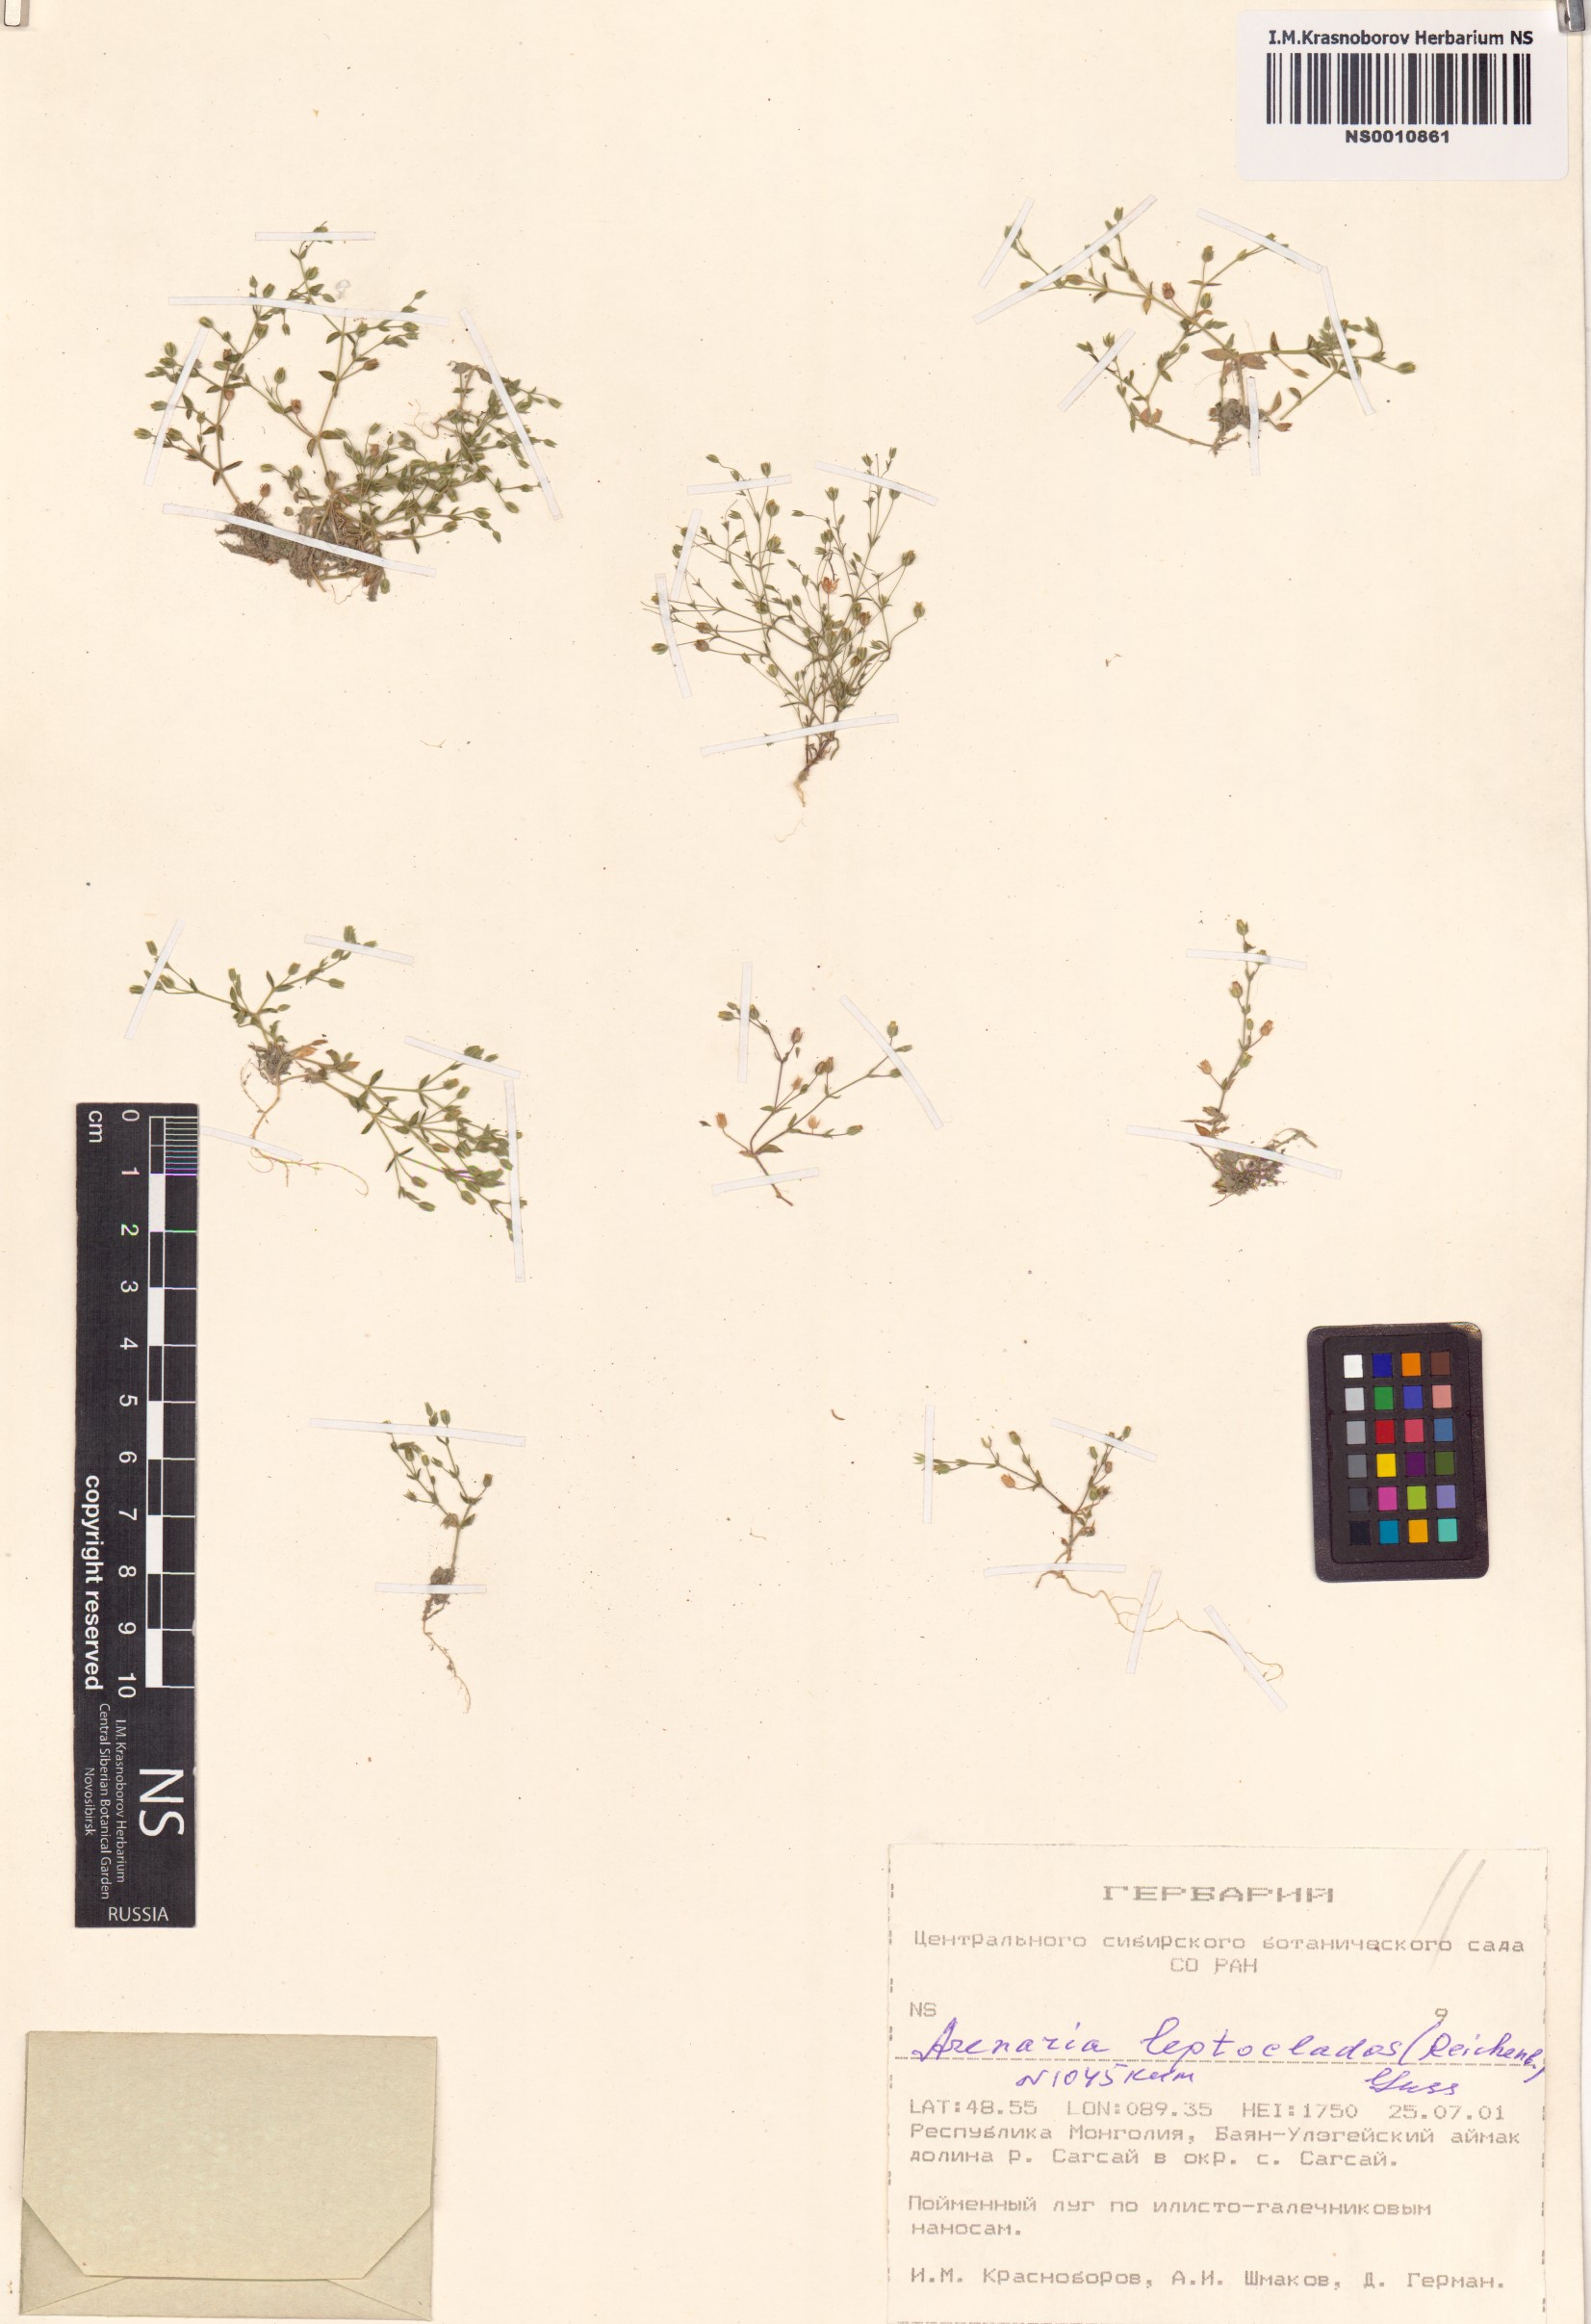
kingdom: Plantae
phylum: Tracheophyta
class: Magnoliopsida
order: Caryophyllales
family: Caryophyllaceae
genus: Arenaria
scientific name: Arenaria leptoclados
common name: Thyme-leaved sandwort
